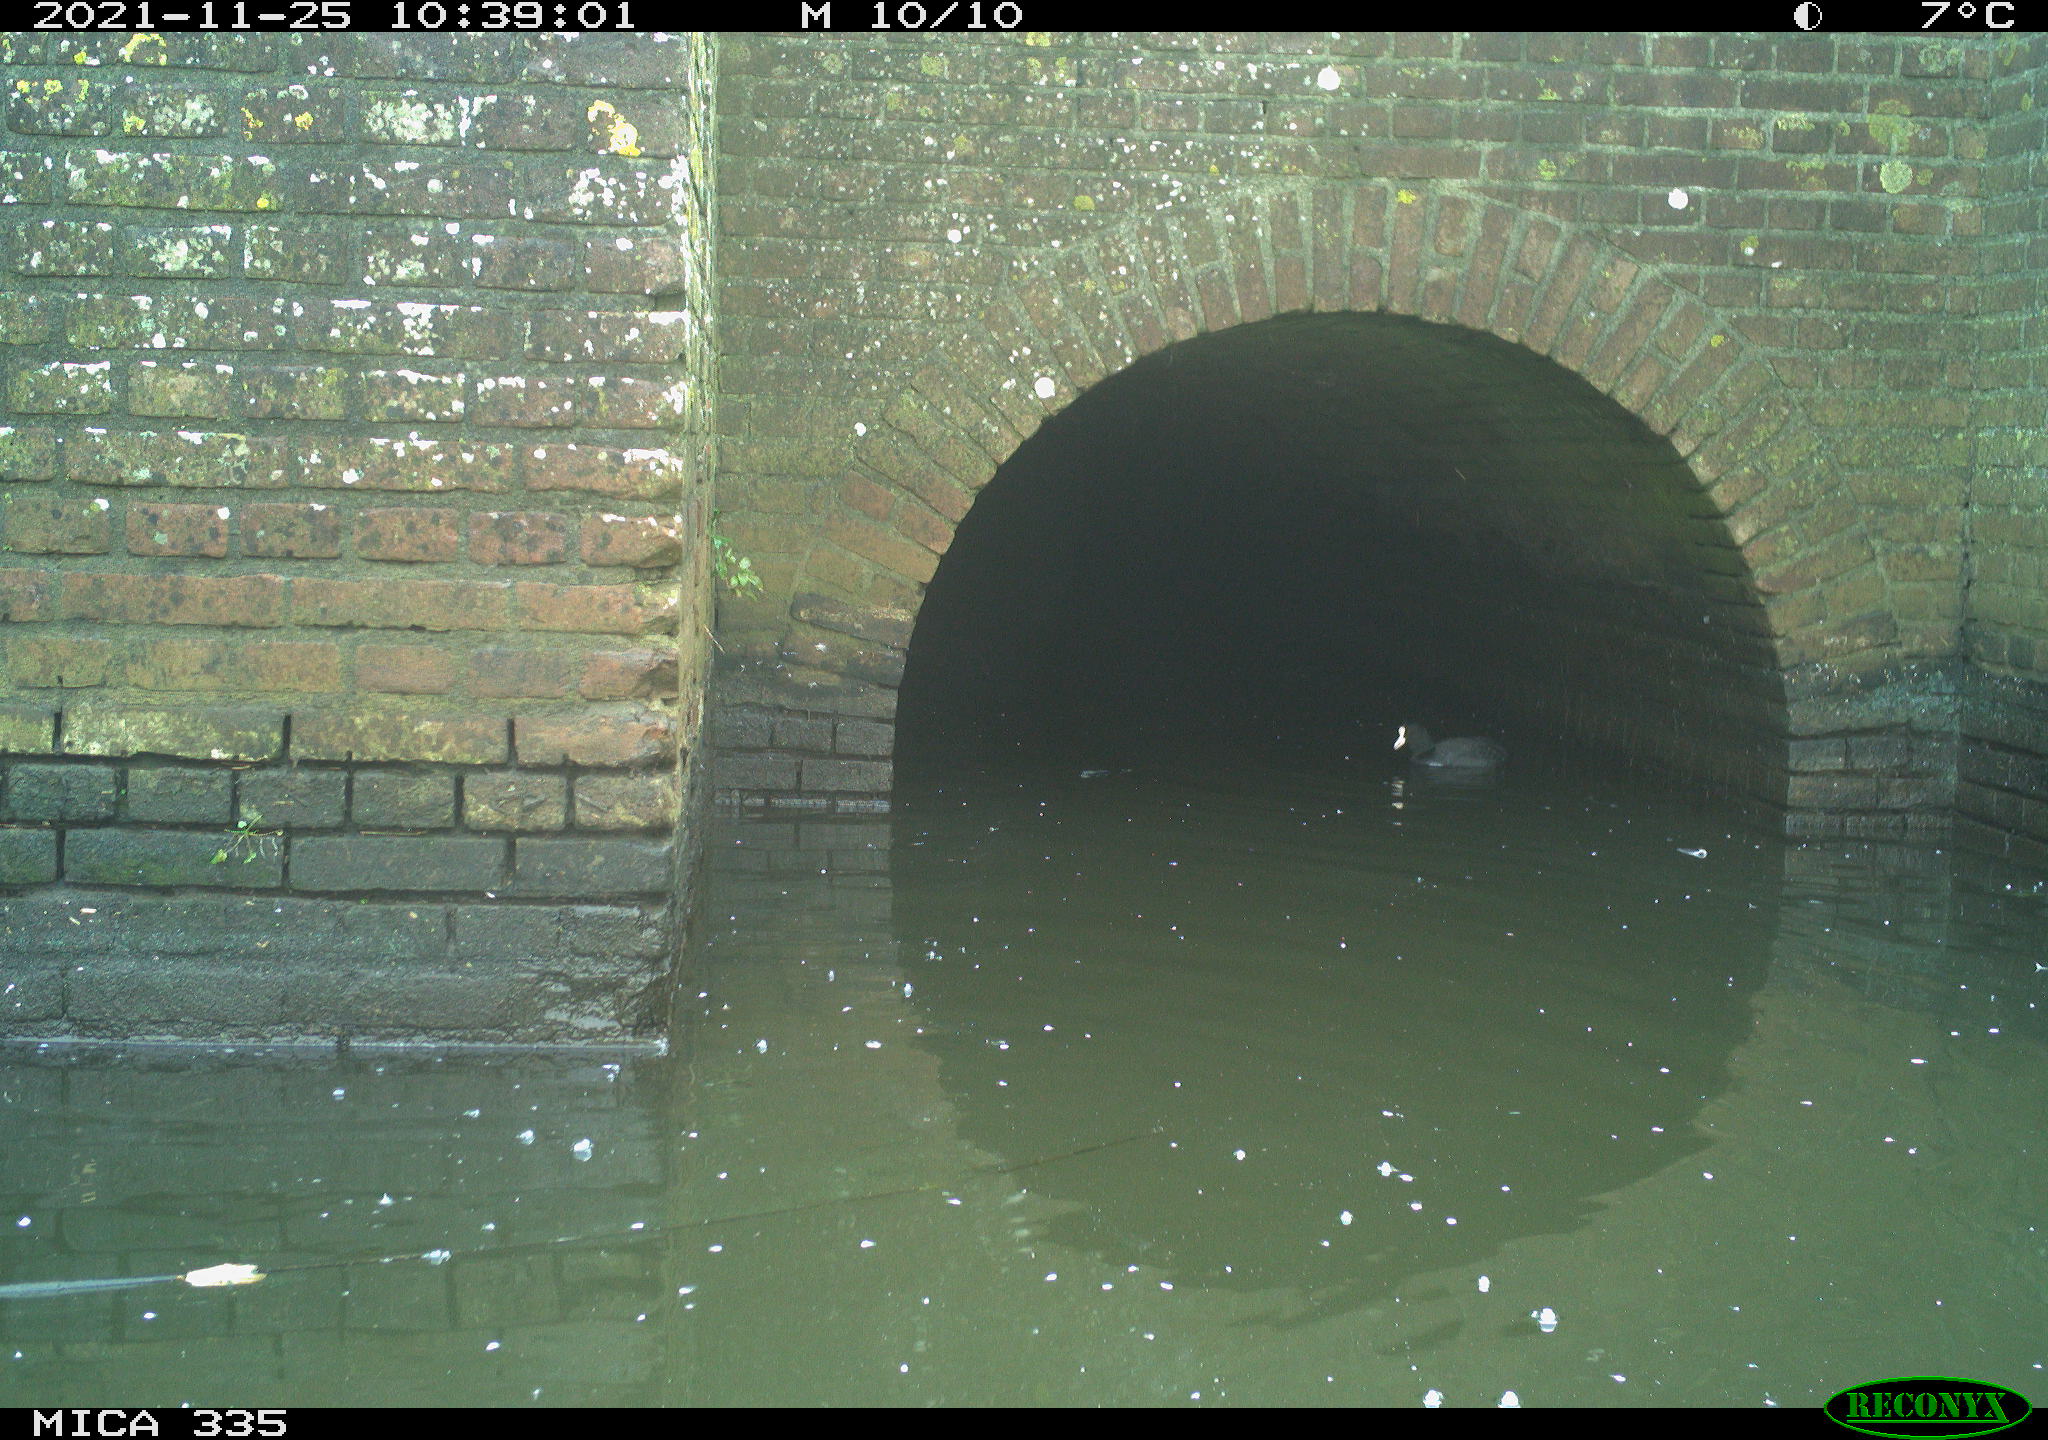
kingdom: Animalia
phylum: Chordata
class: Aves
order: Gruiformes
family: Rallidae
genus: Fulica
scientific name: Fulica atra
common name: Eurasian coot
